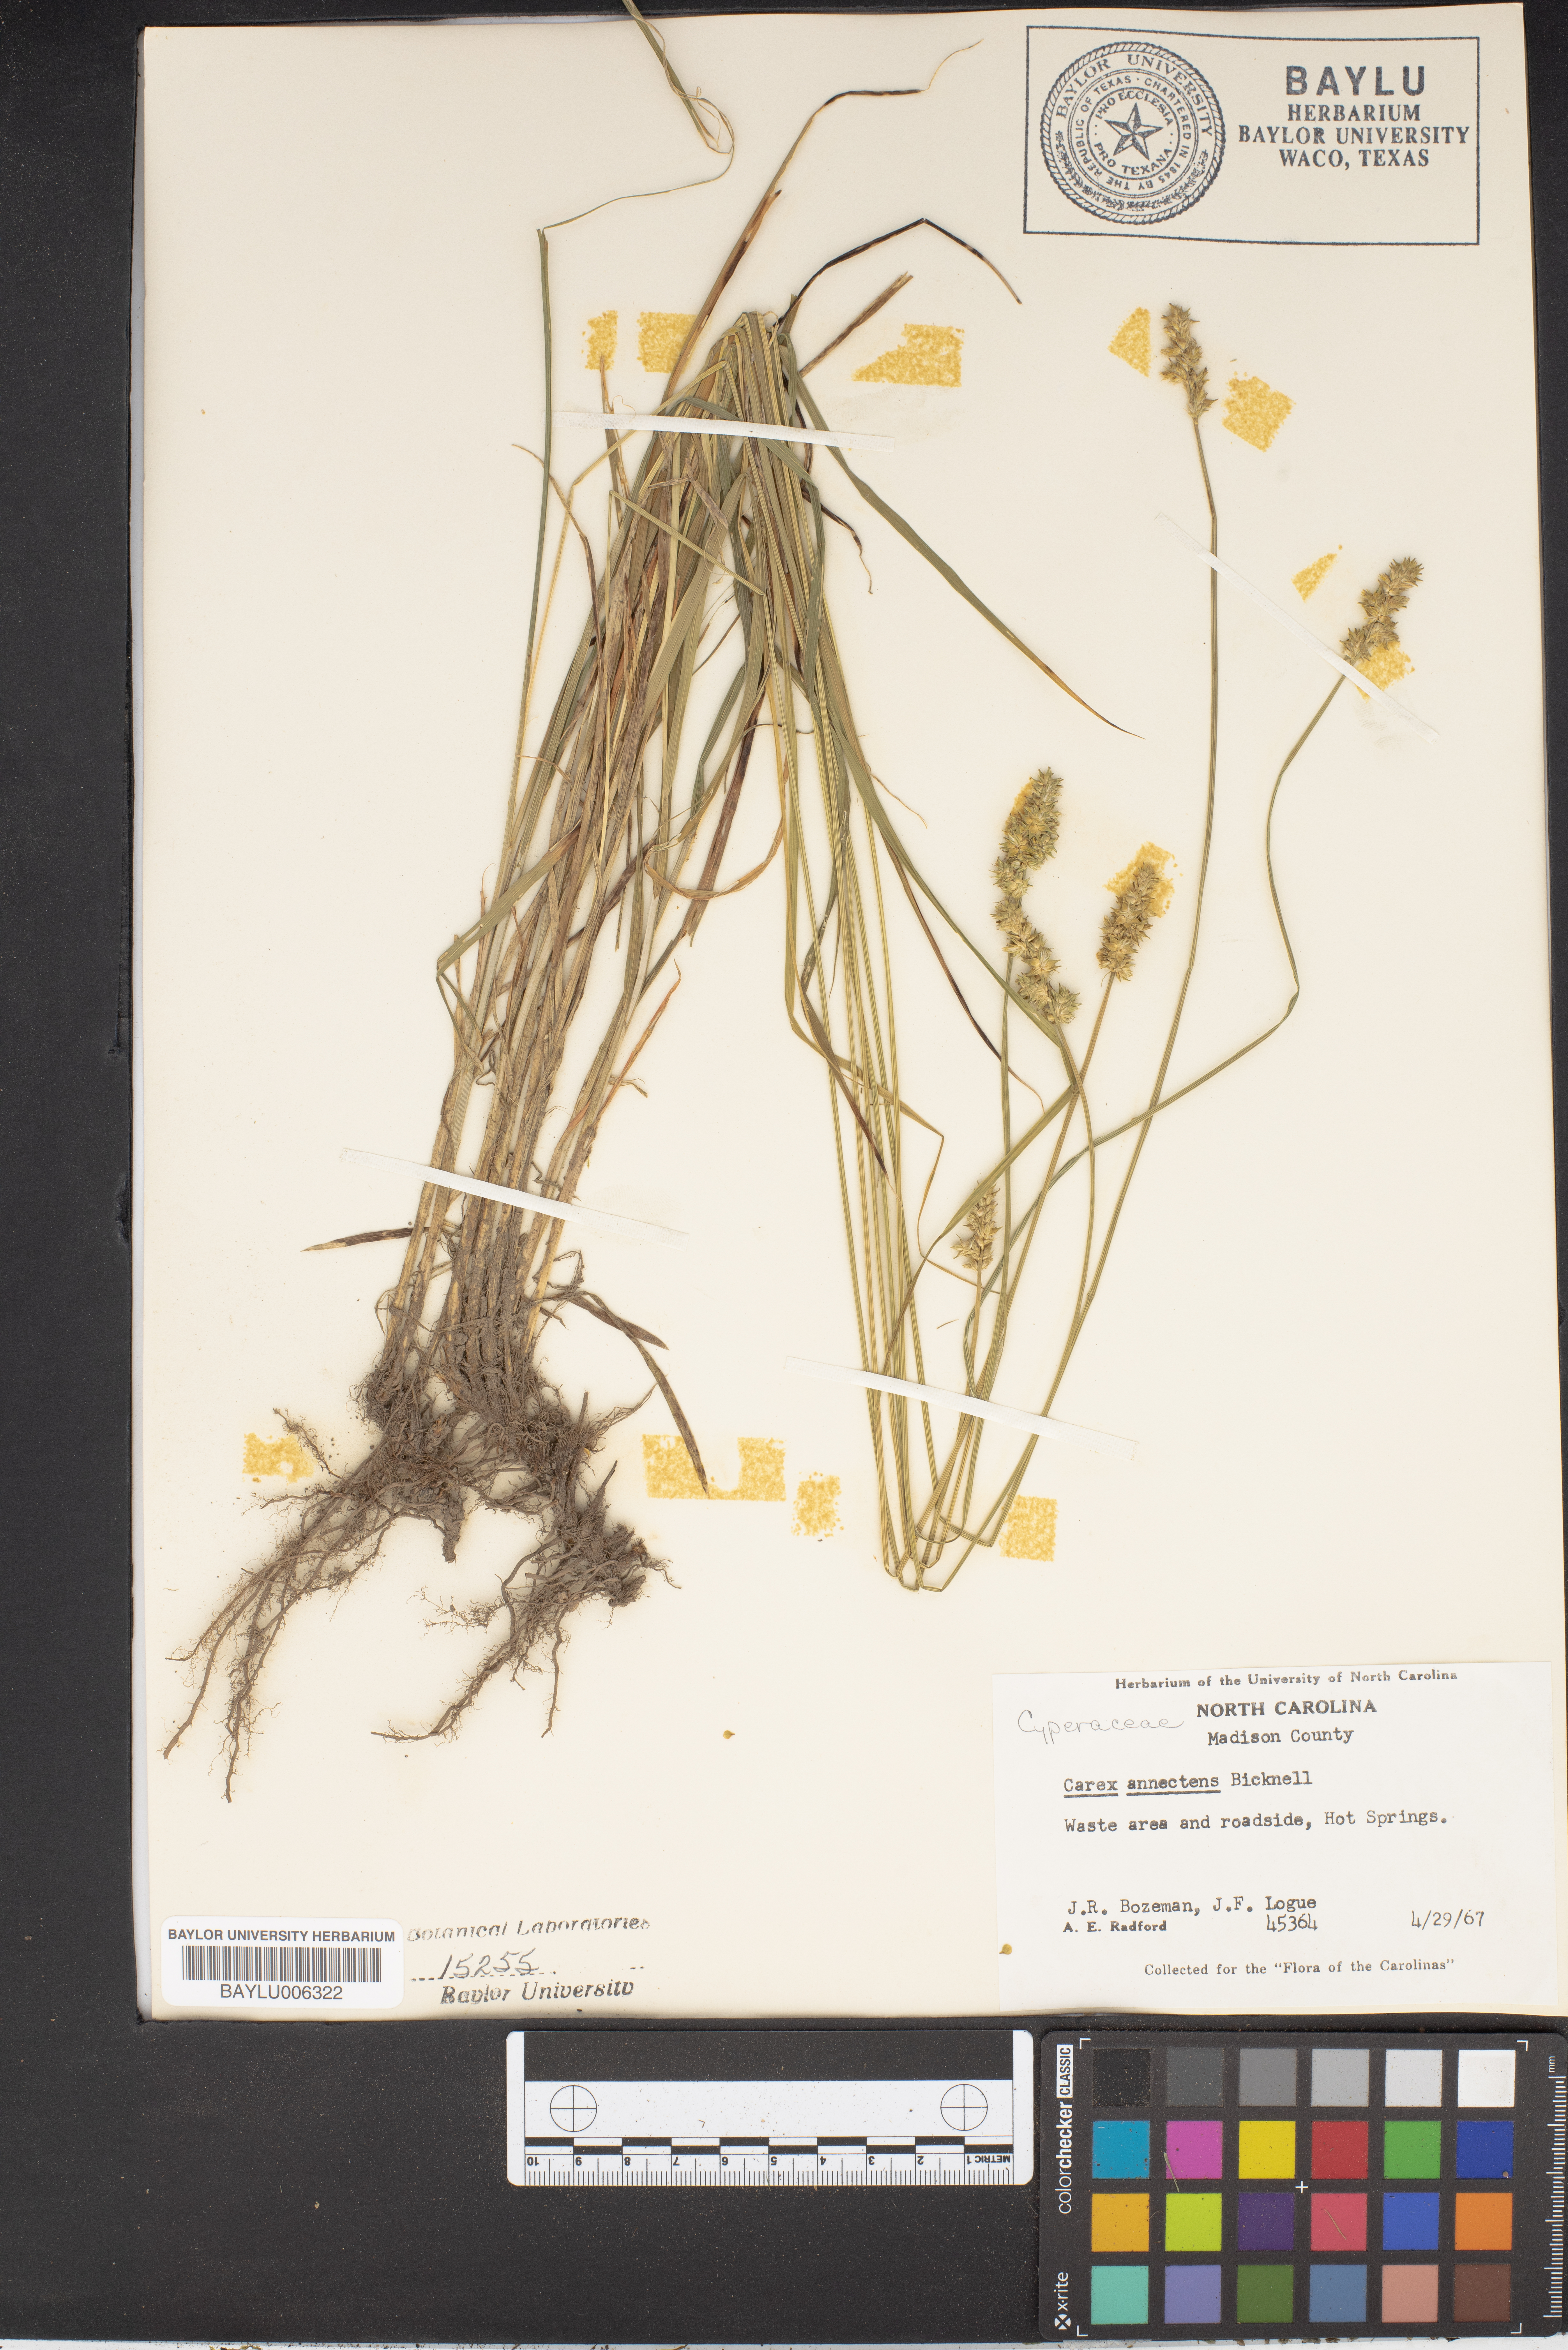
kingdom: Plantae
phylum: Tracheophyta
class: Liliopsida
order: Poales
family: Cyperaceae
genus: Carex
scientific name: Carex annectens
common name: Large fox sedge
